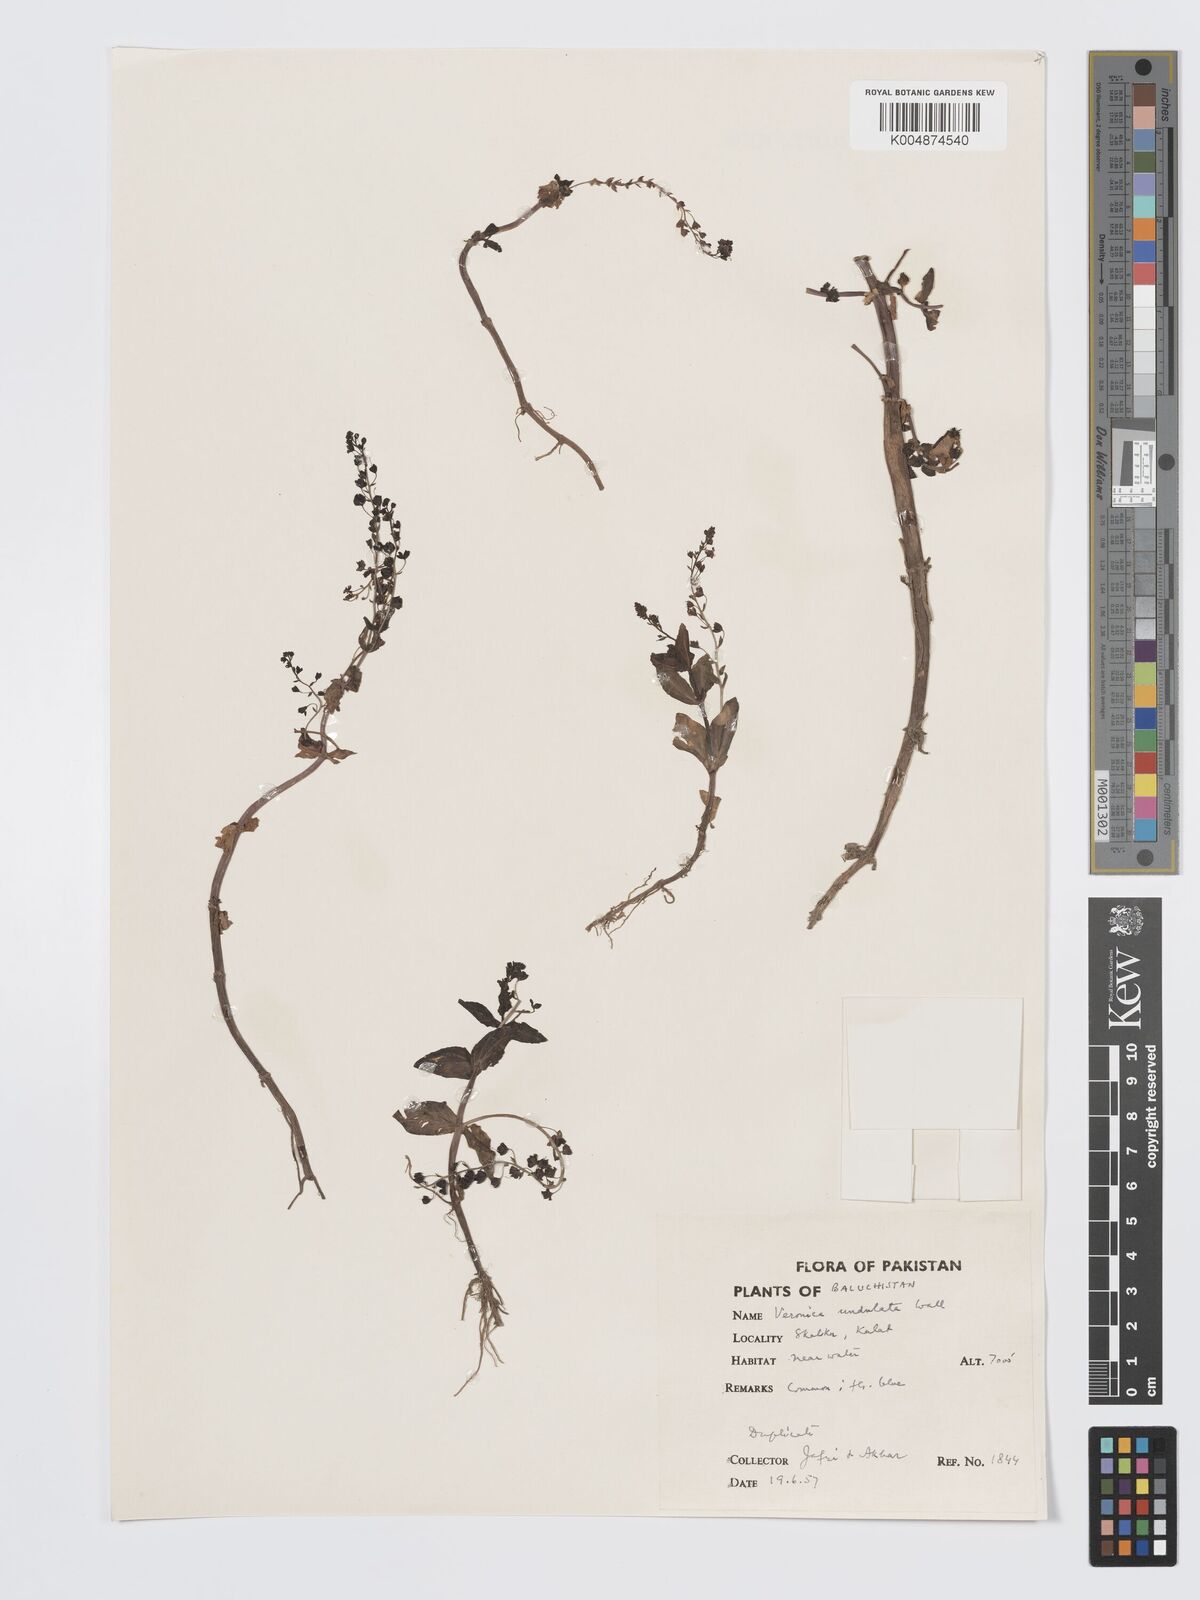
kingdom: Plantae
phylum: Tracheophyta
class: Magnoliopsida
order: Lamiales
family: Plantaginaceae
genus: Veronica
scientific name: Veronica undulata
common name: Undulate speedwell
